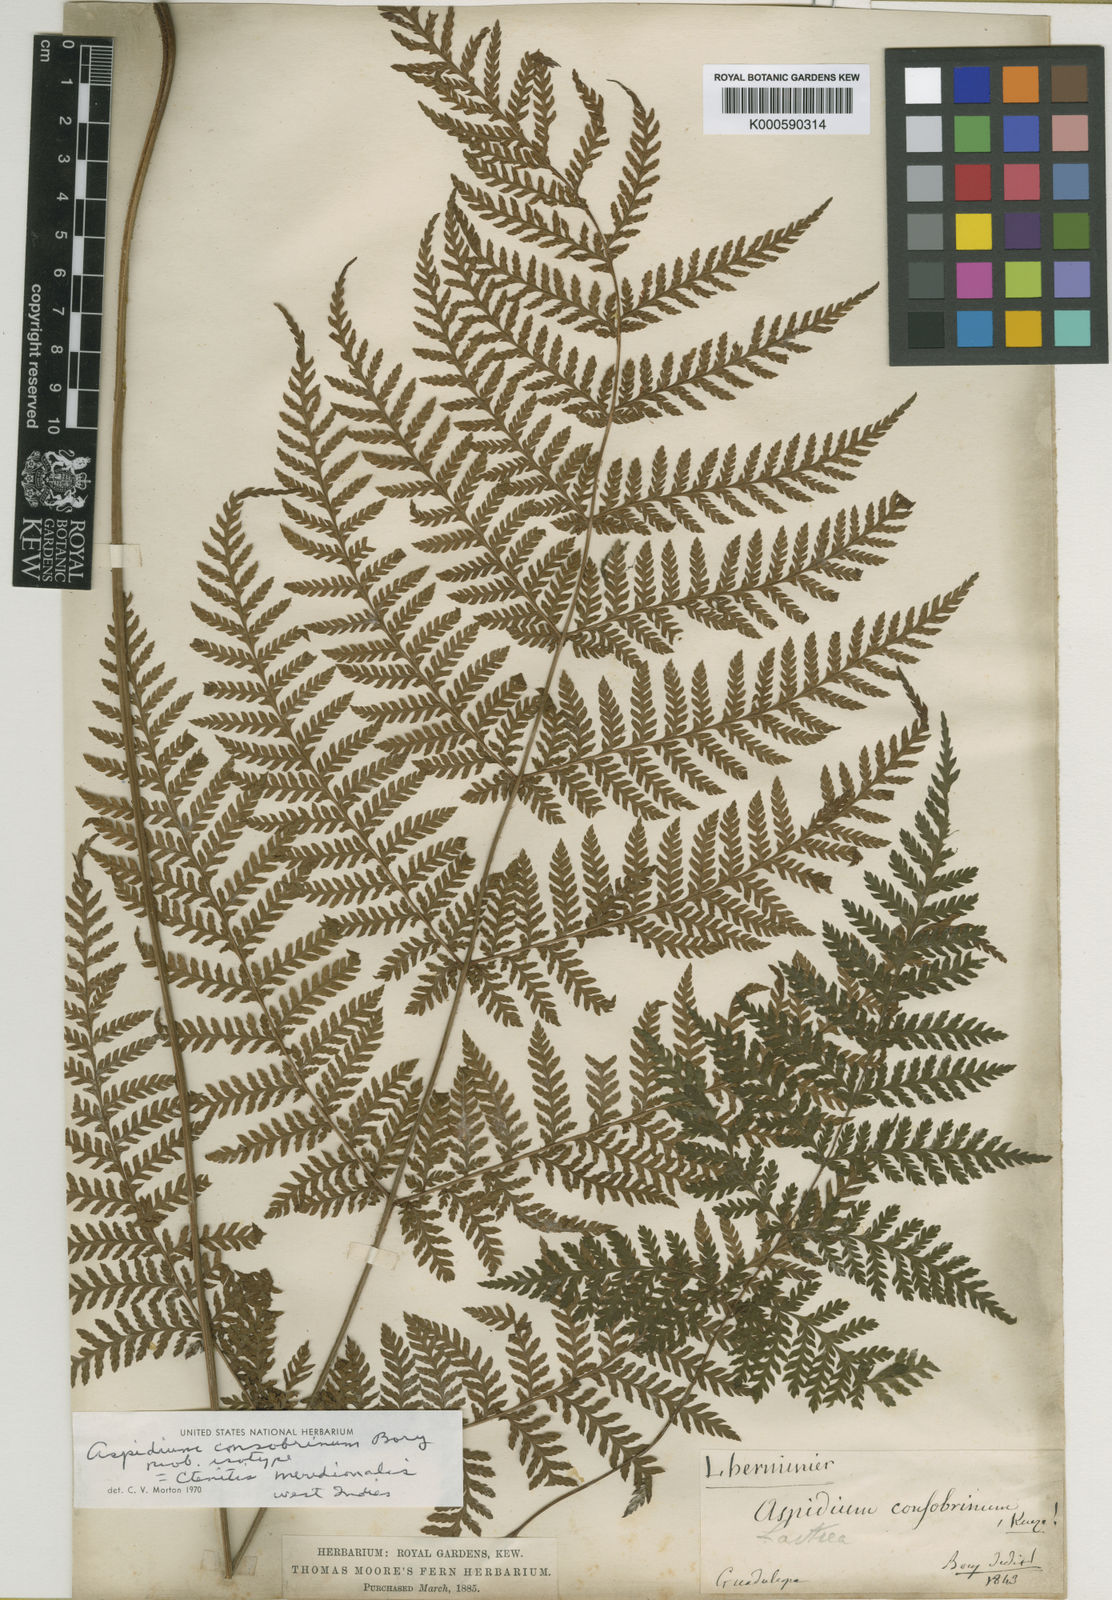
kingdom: Plantae
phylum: Tracheophyta
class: Polypodiopsida
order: Polypodiales
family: Dryopteridaceae
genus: Ctenitis
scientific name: Ctenitis meridionalis
